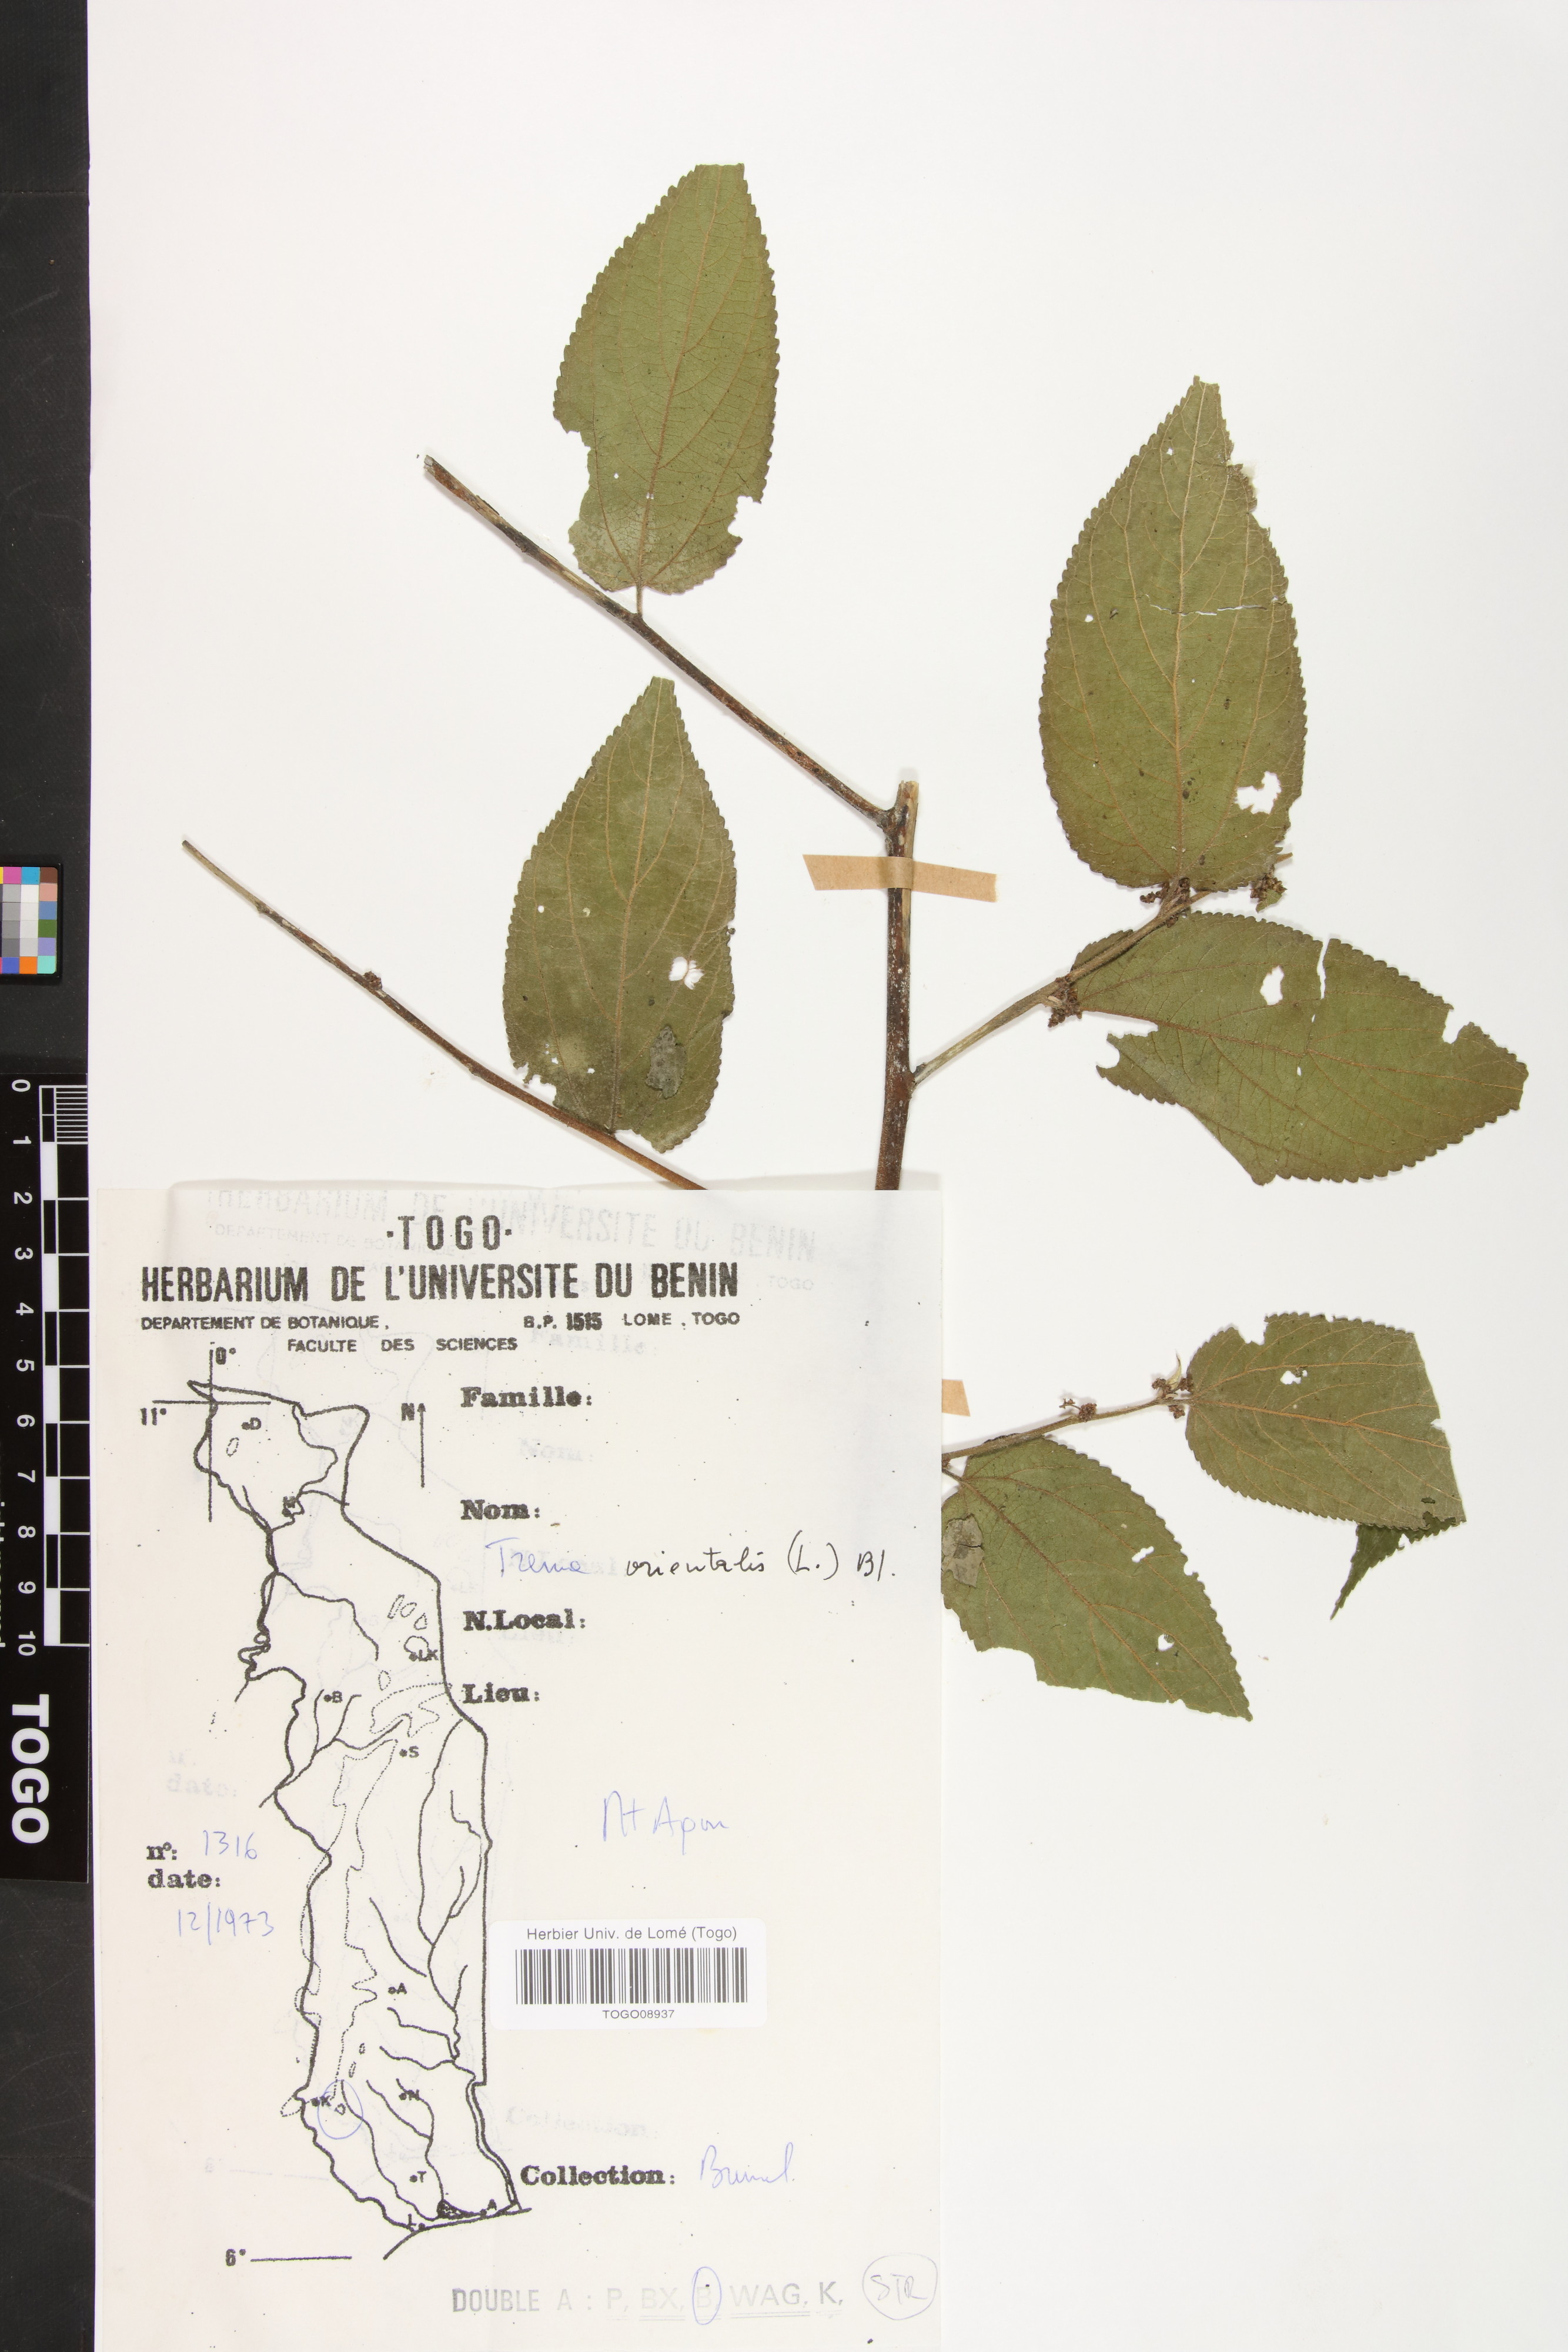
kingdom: Plantae
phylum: Tracheophyta
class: Magnoliopsida
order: Rosales
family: Cannabaceae
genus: Trema
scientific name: Trema orientale
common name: Indian charcoal tree
